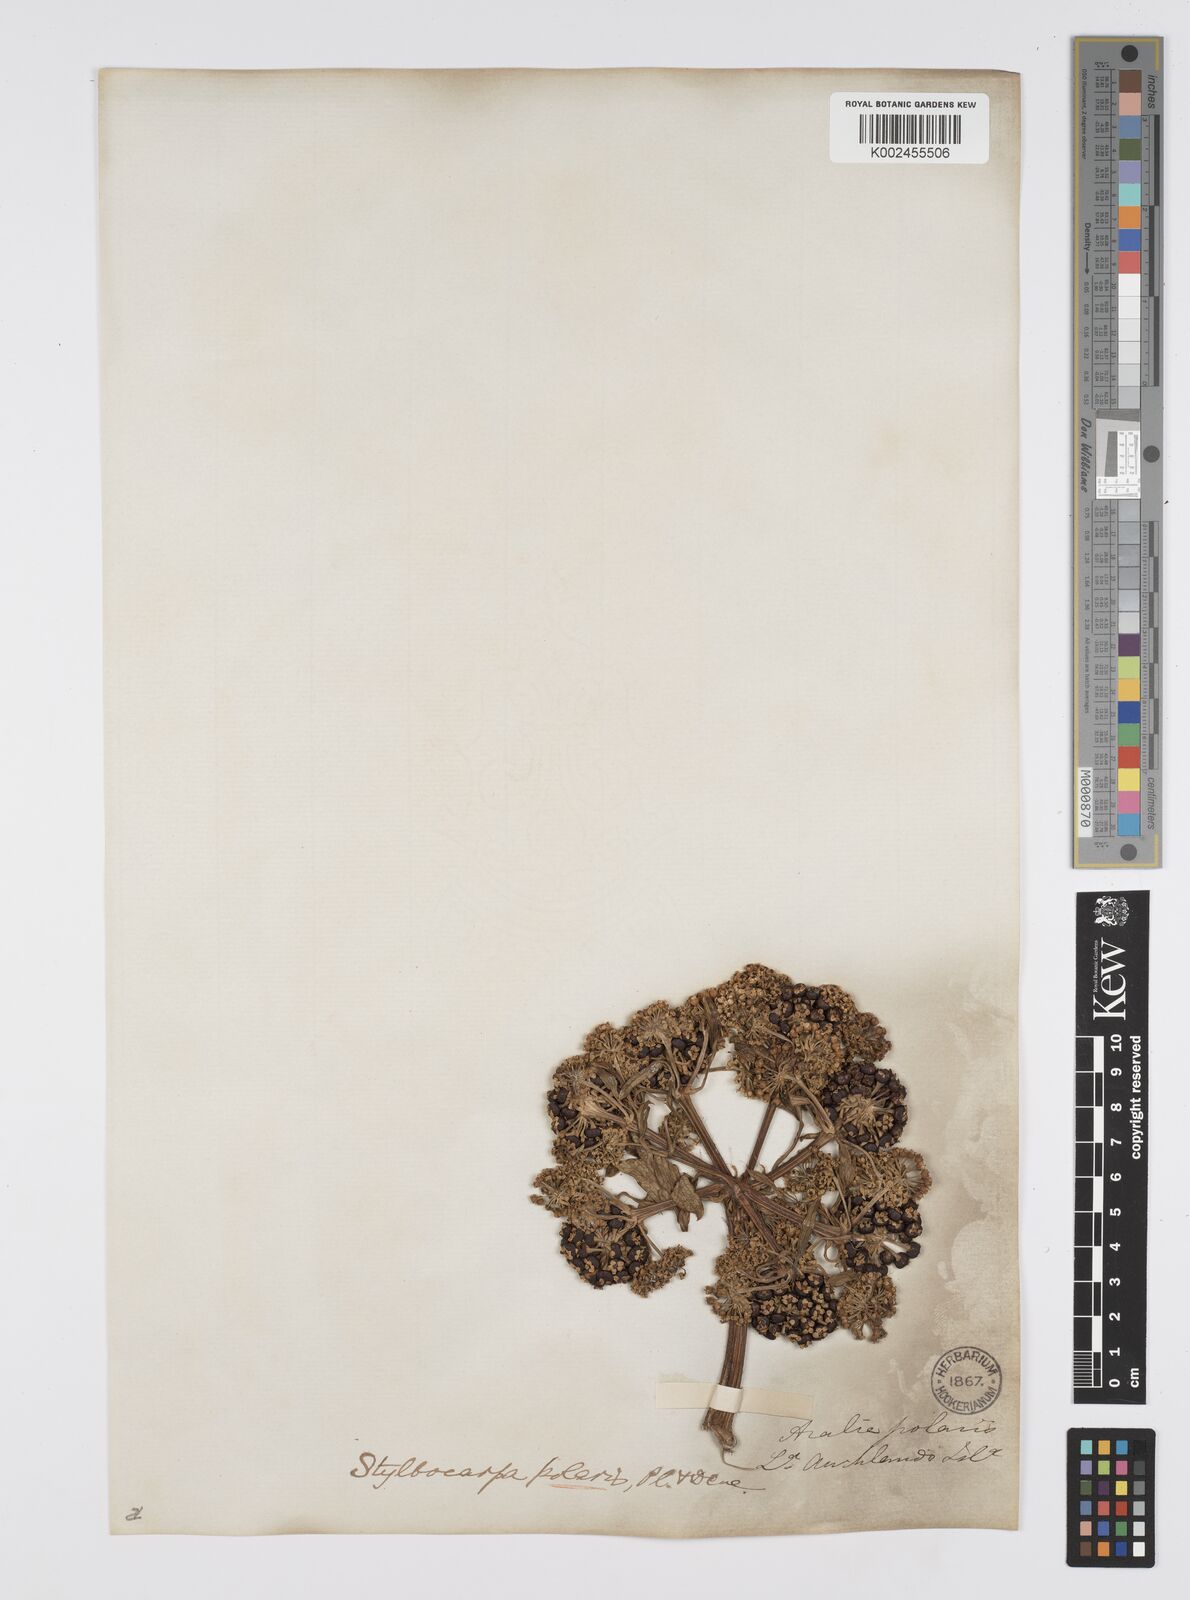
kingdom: Plantae
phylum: Tracheophyta
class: Magnoliopsida
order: Apiales
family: Araliaceae
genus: Stilbocarpa
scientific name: Stilbocarpa
